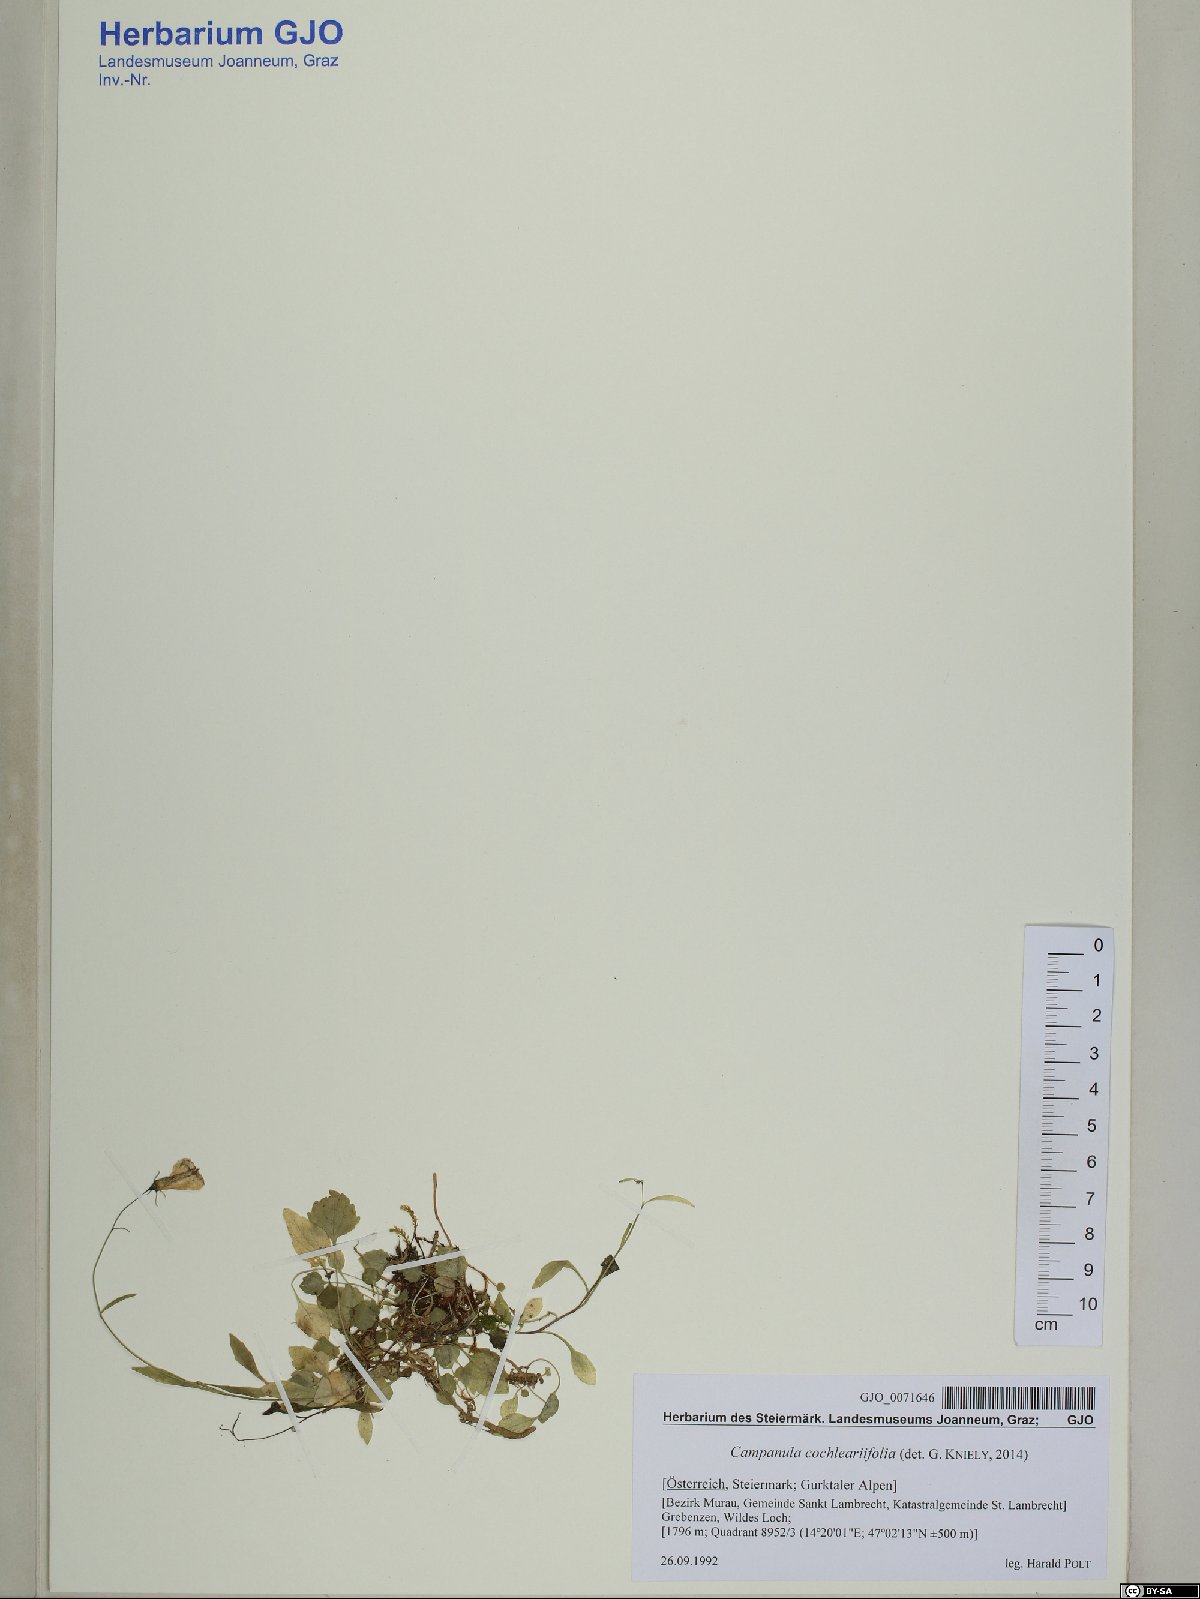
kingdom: Plantae
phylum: Tracheophyta
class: Magnoliopsida
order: Asterales
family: Campanulaceae
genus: Campanula
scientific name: Campanula cochleariifolia
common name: Fairies'-thimbles
